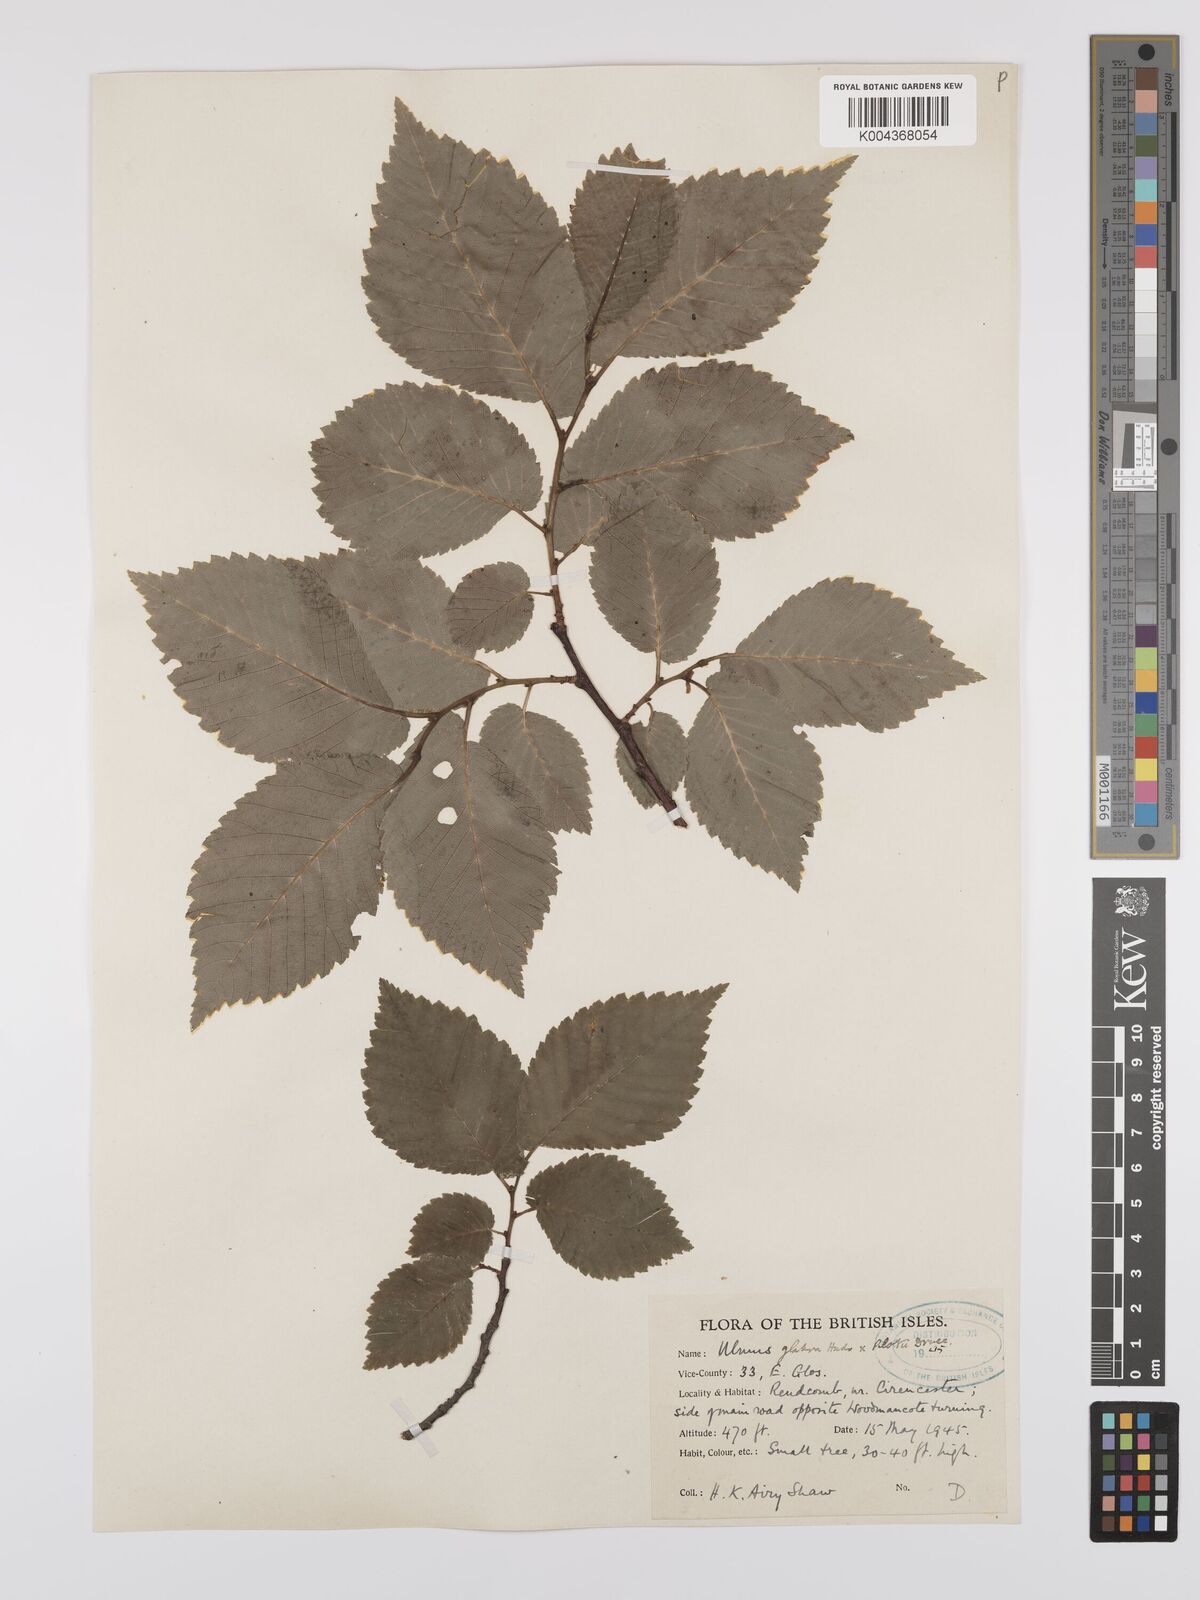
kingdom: Plantae
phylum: Tracheophyta
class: Magnoliopsida
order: Rosales
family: Ulmaceae
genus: Ulmus
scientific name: Ulmus
